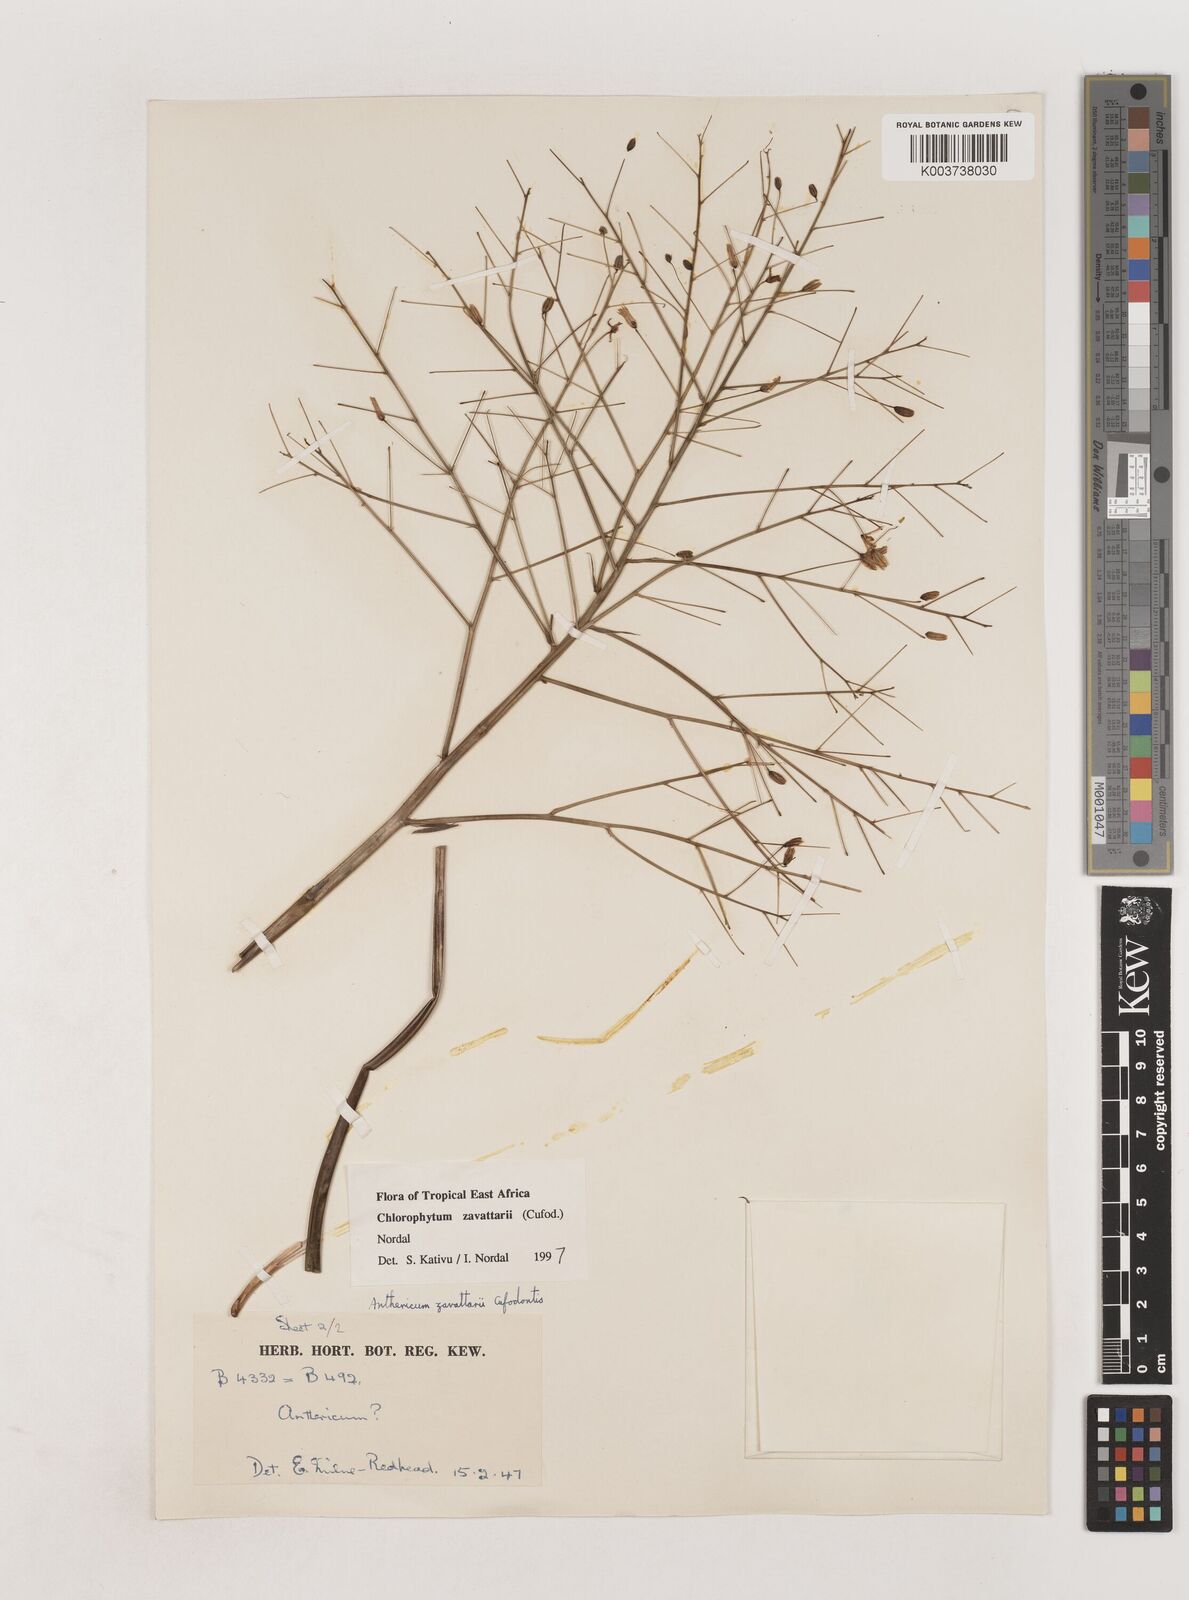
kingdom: Plantae
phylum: Tracheophyta
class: Liliopsida
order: Asparagales
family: Asparagaceae
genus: Chlorophytum
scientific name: Chlorophytum zavattarii
